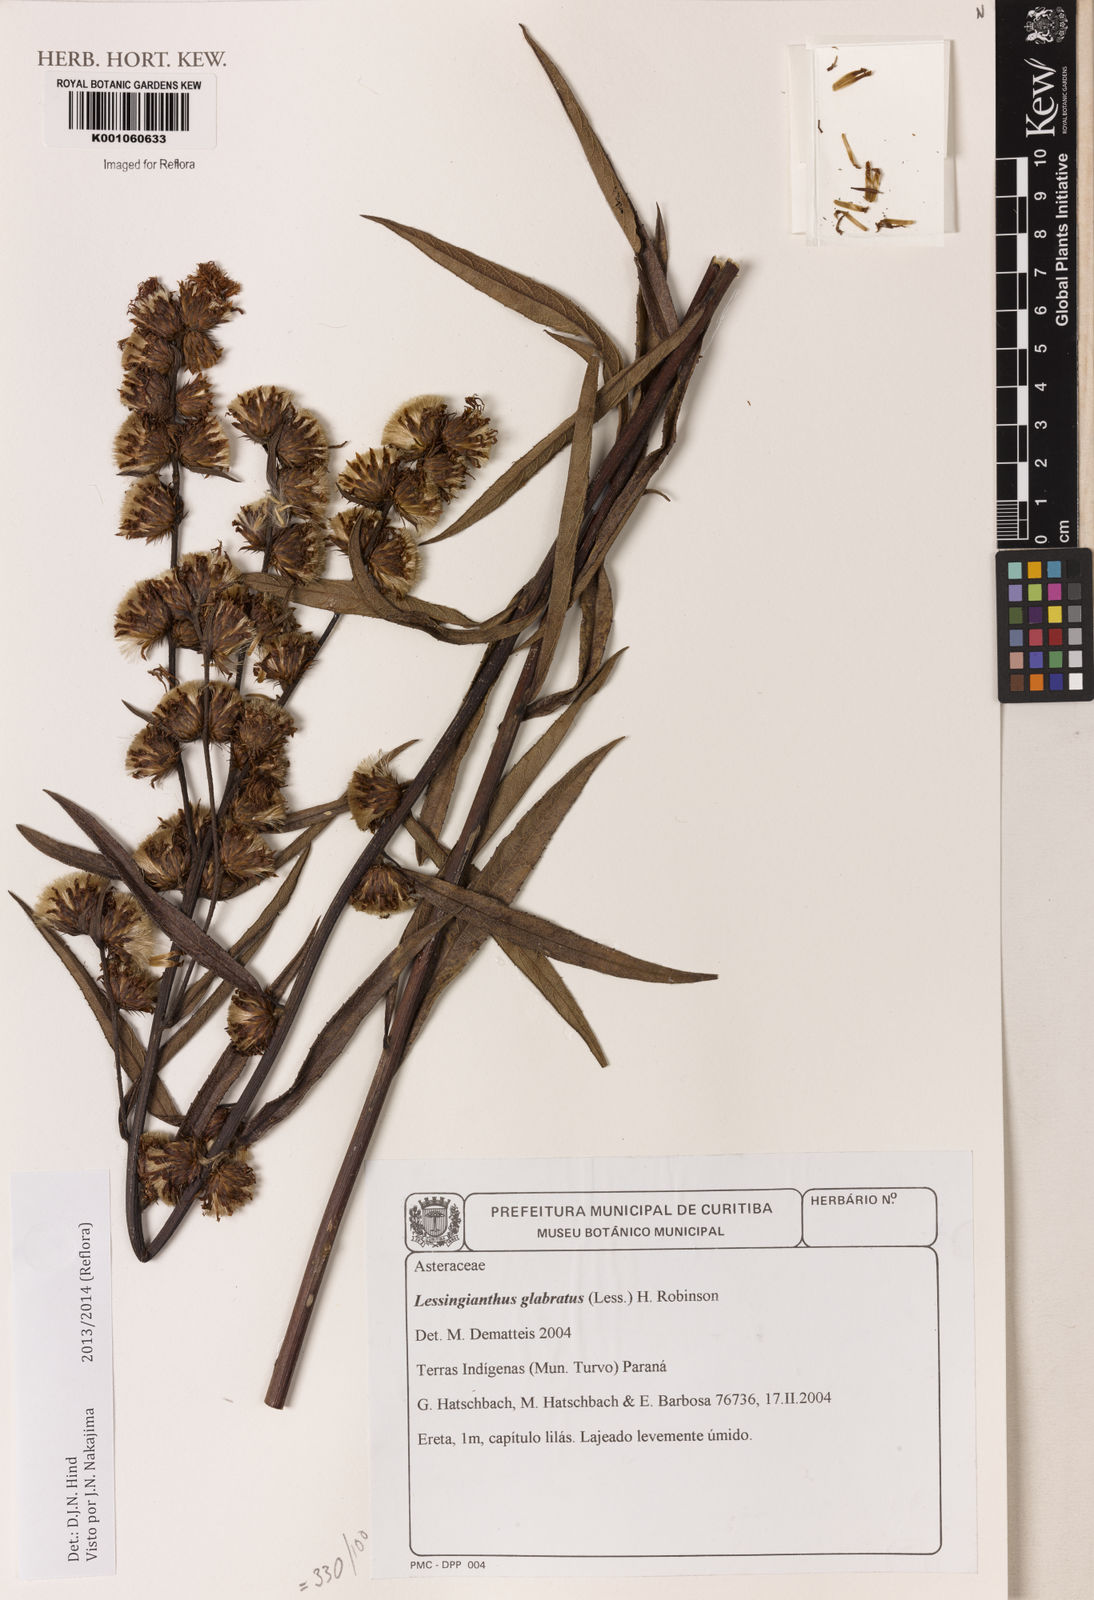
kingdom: Plantae
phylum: Tracheophyta
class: Magnoliopsida
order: Asterales
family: Asteraceae
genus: Lessingianthus
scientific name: Lessingianthus glabratus
